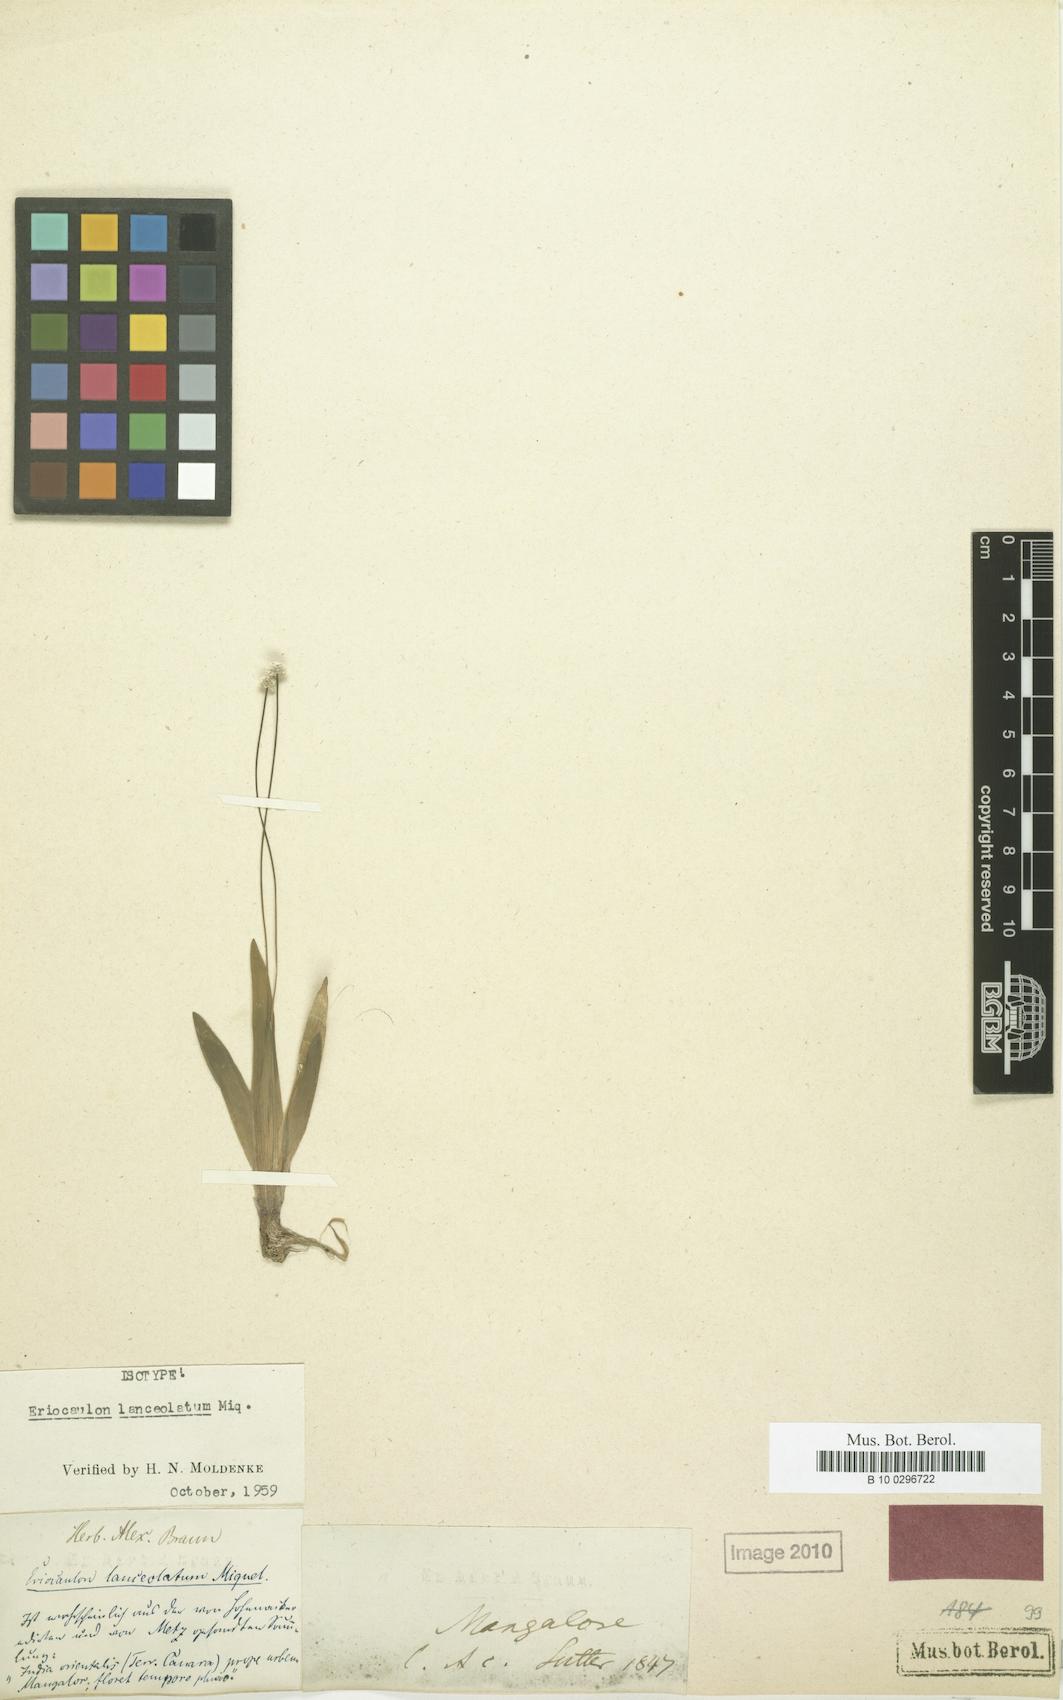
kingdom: Plantae
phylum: Tracheophyta
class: Liliopsida
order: Poales
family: Eriocaulaceae
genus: Eriocaulon
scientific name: Eriocaulon lanceolatum
